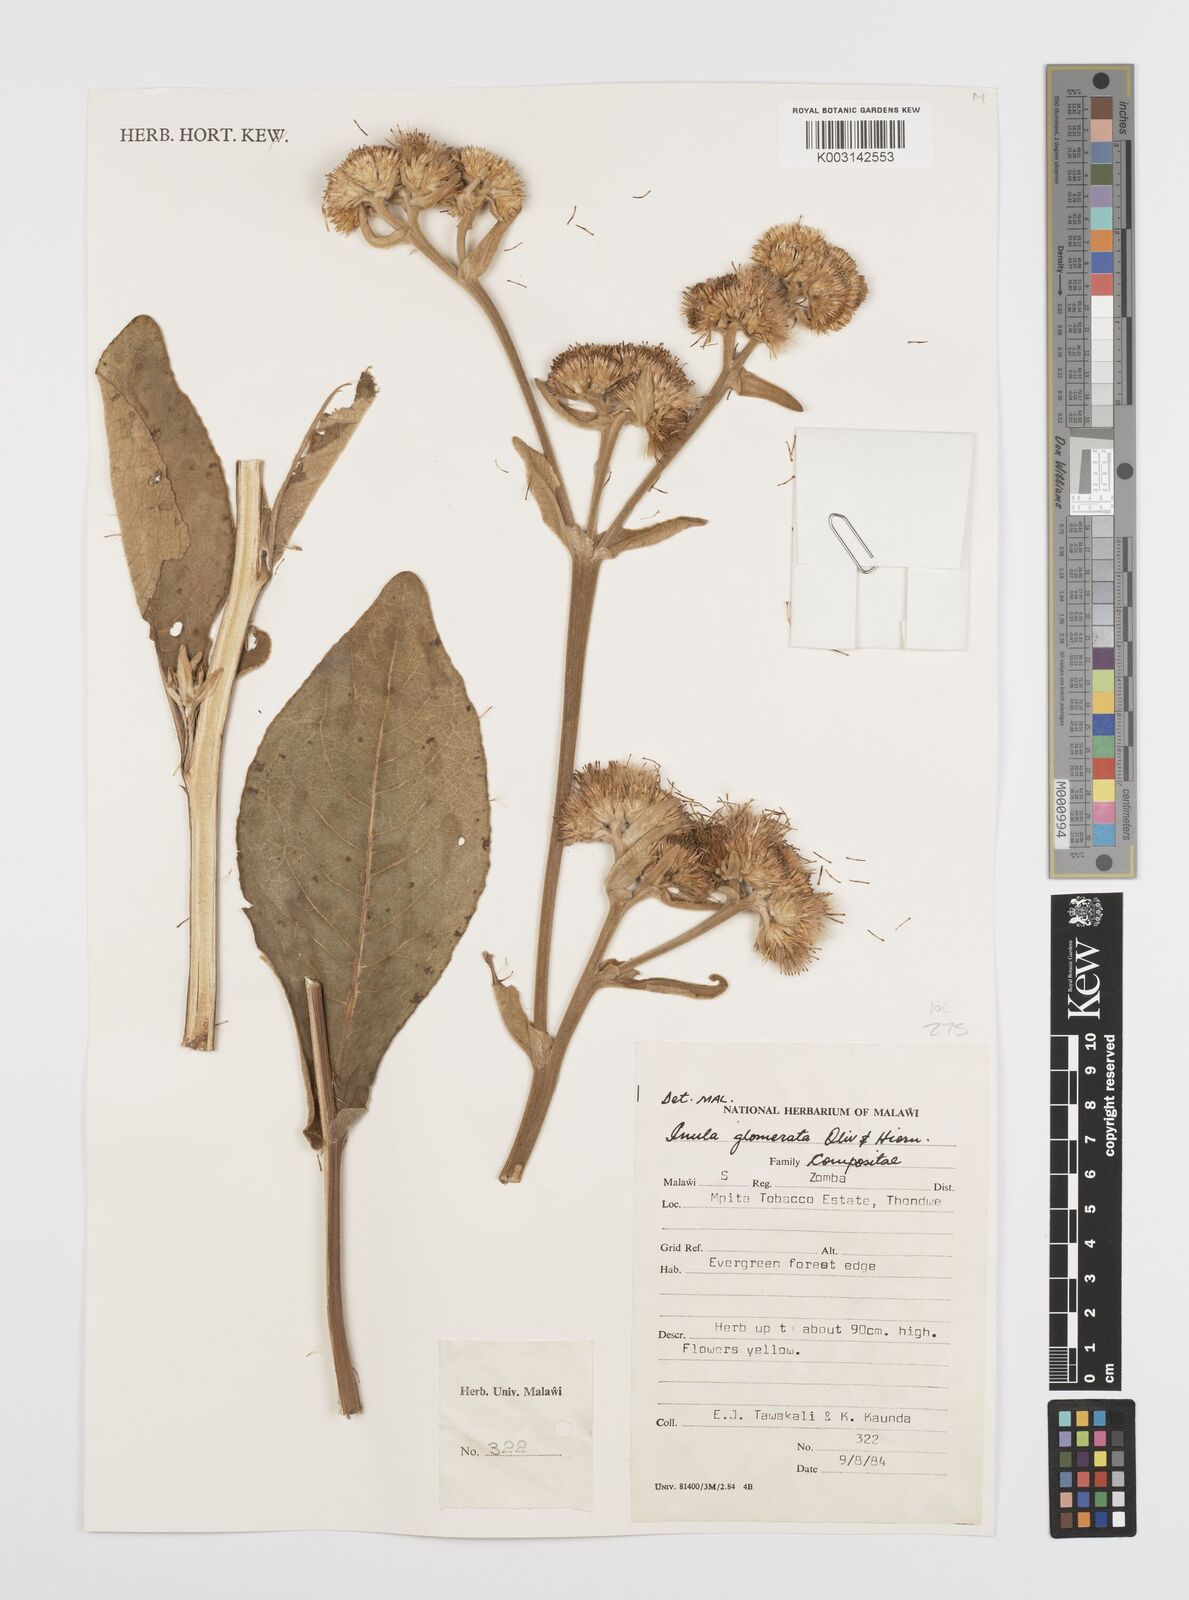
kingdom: Plantae
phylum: Tracheophyta
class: Magnoliopsida
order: Asterales
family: Asteraceae
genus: Inula
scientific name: Inula glomerata
